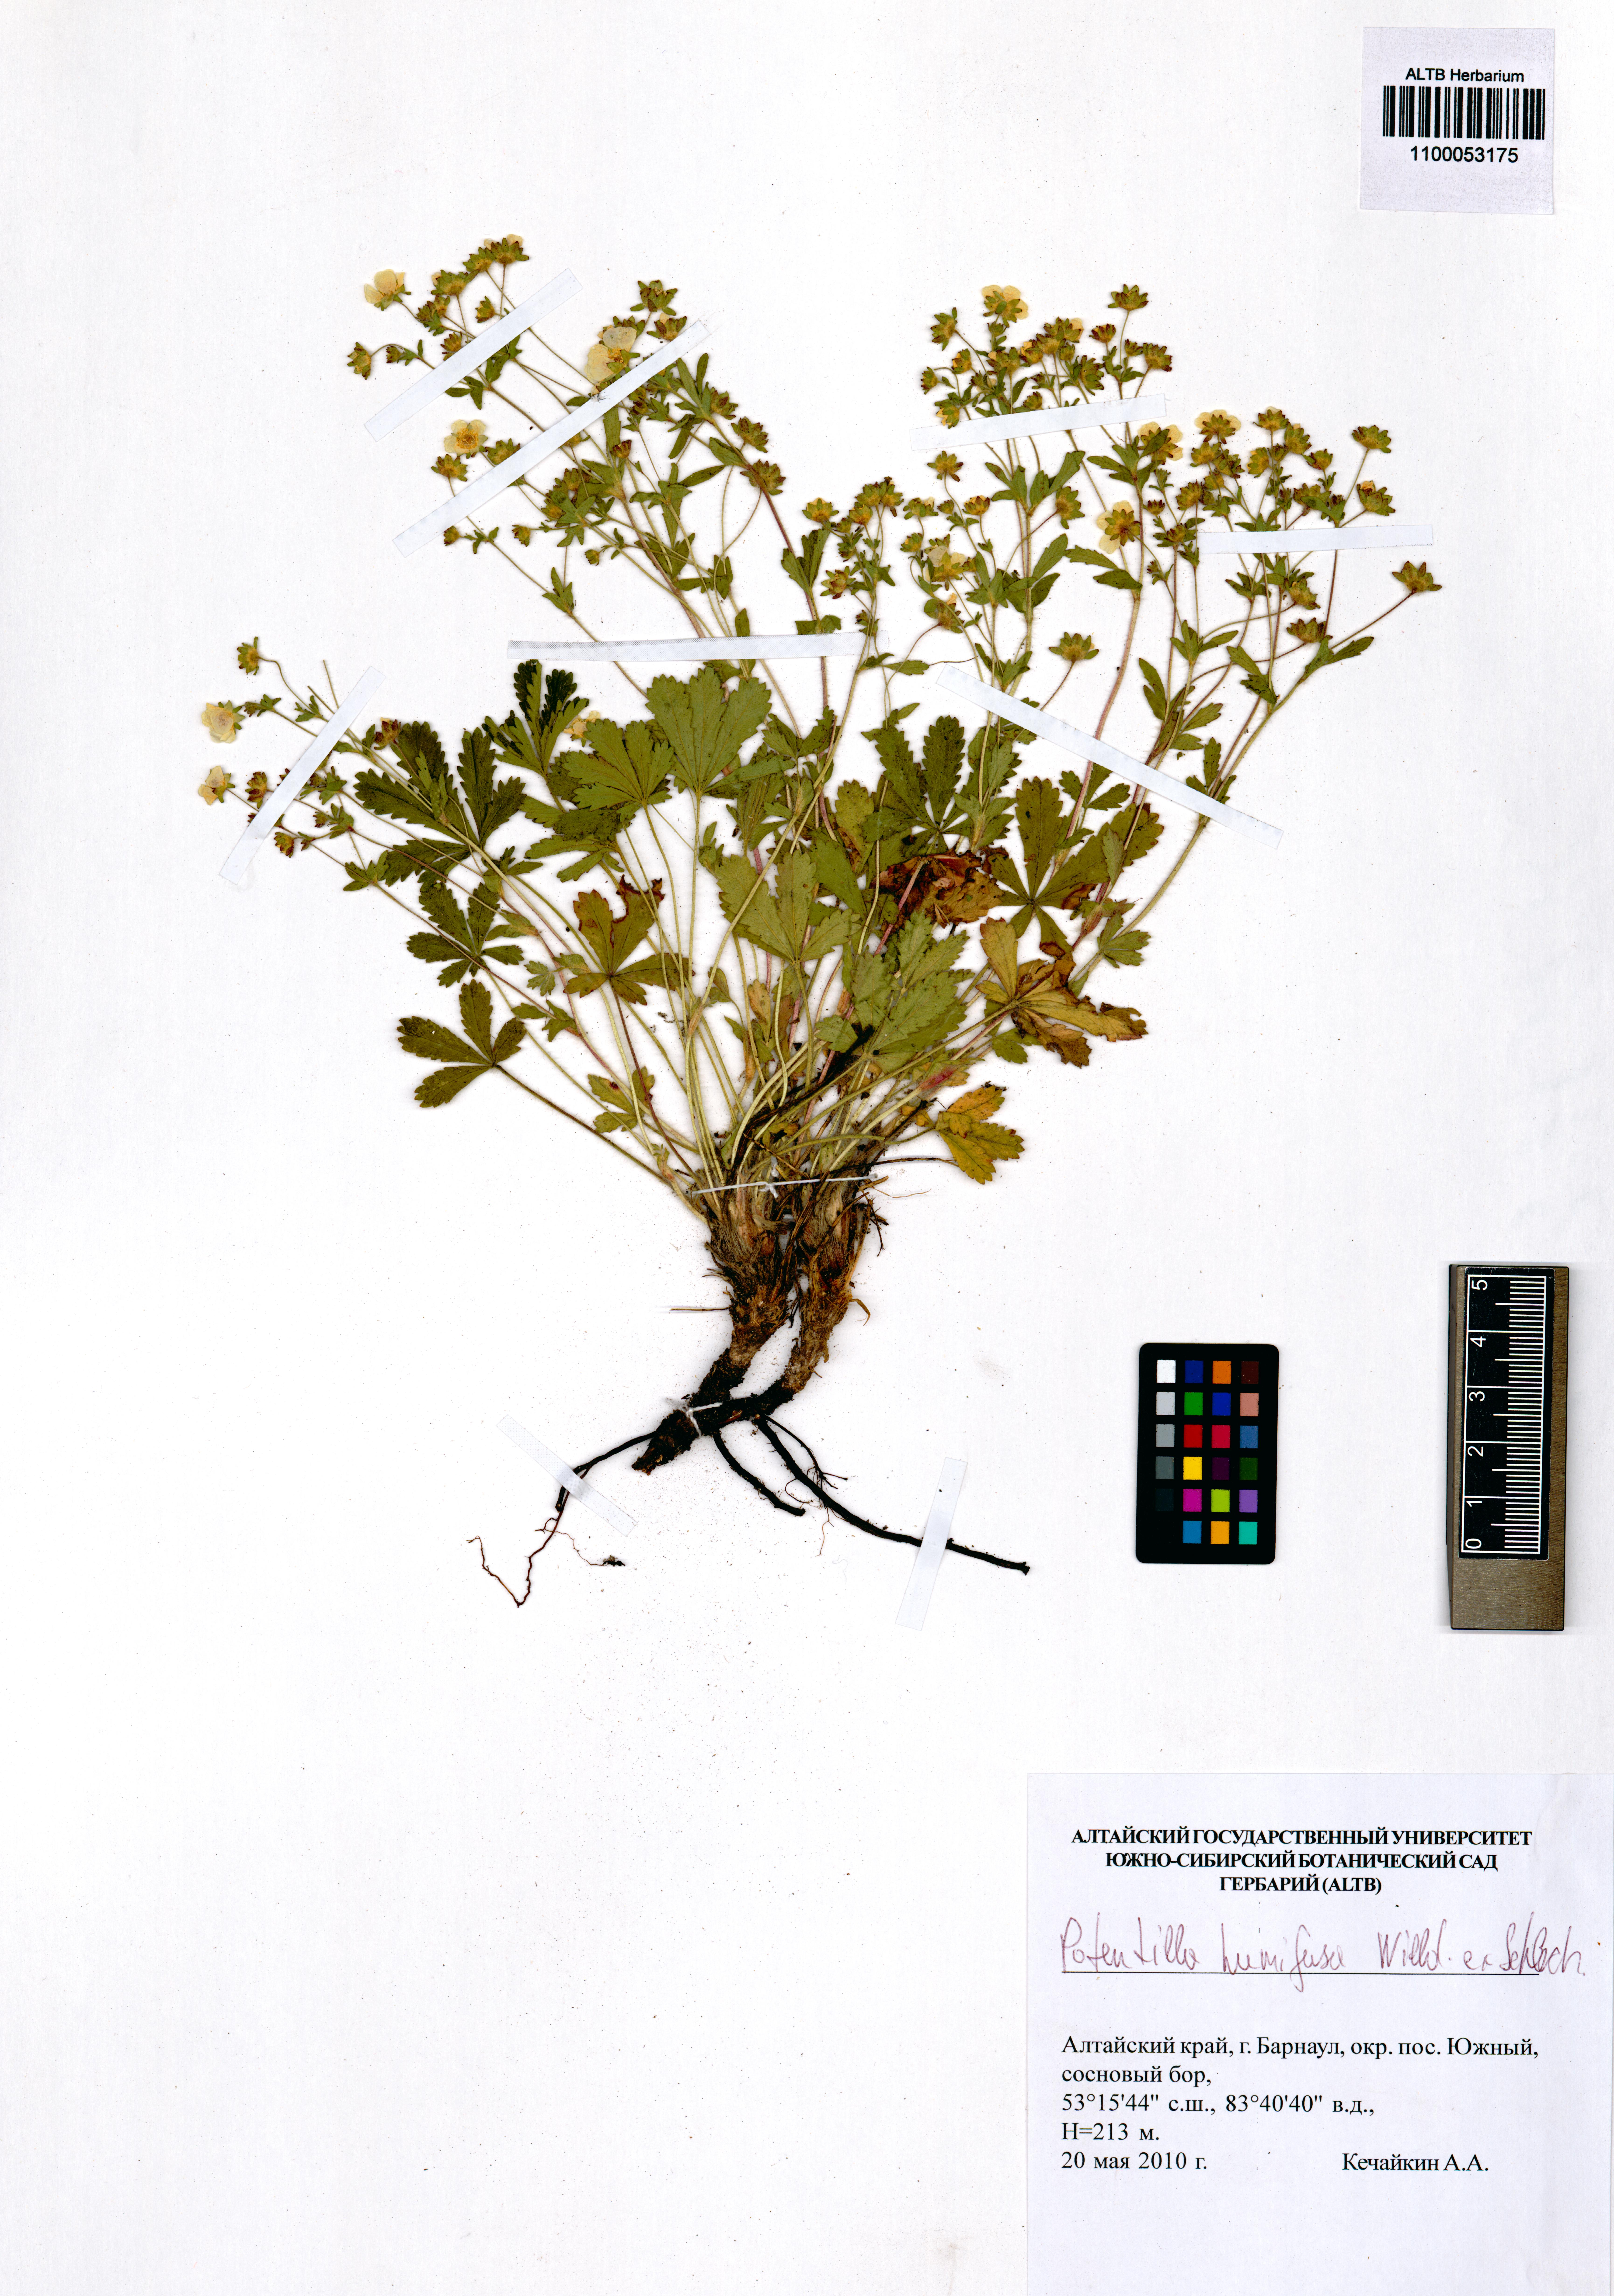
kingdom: Plantae
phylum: Tracheophyta
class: Magnoliopsida
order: Rosales
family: Rosaceae
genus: Potentilla
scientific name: Potentilla humifusa
